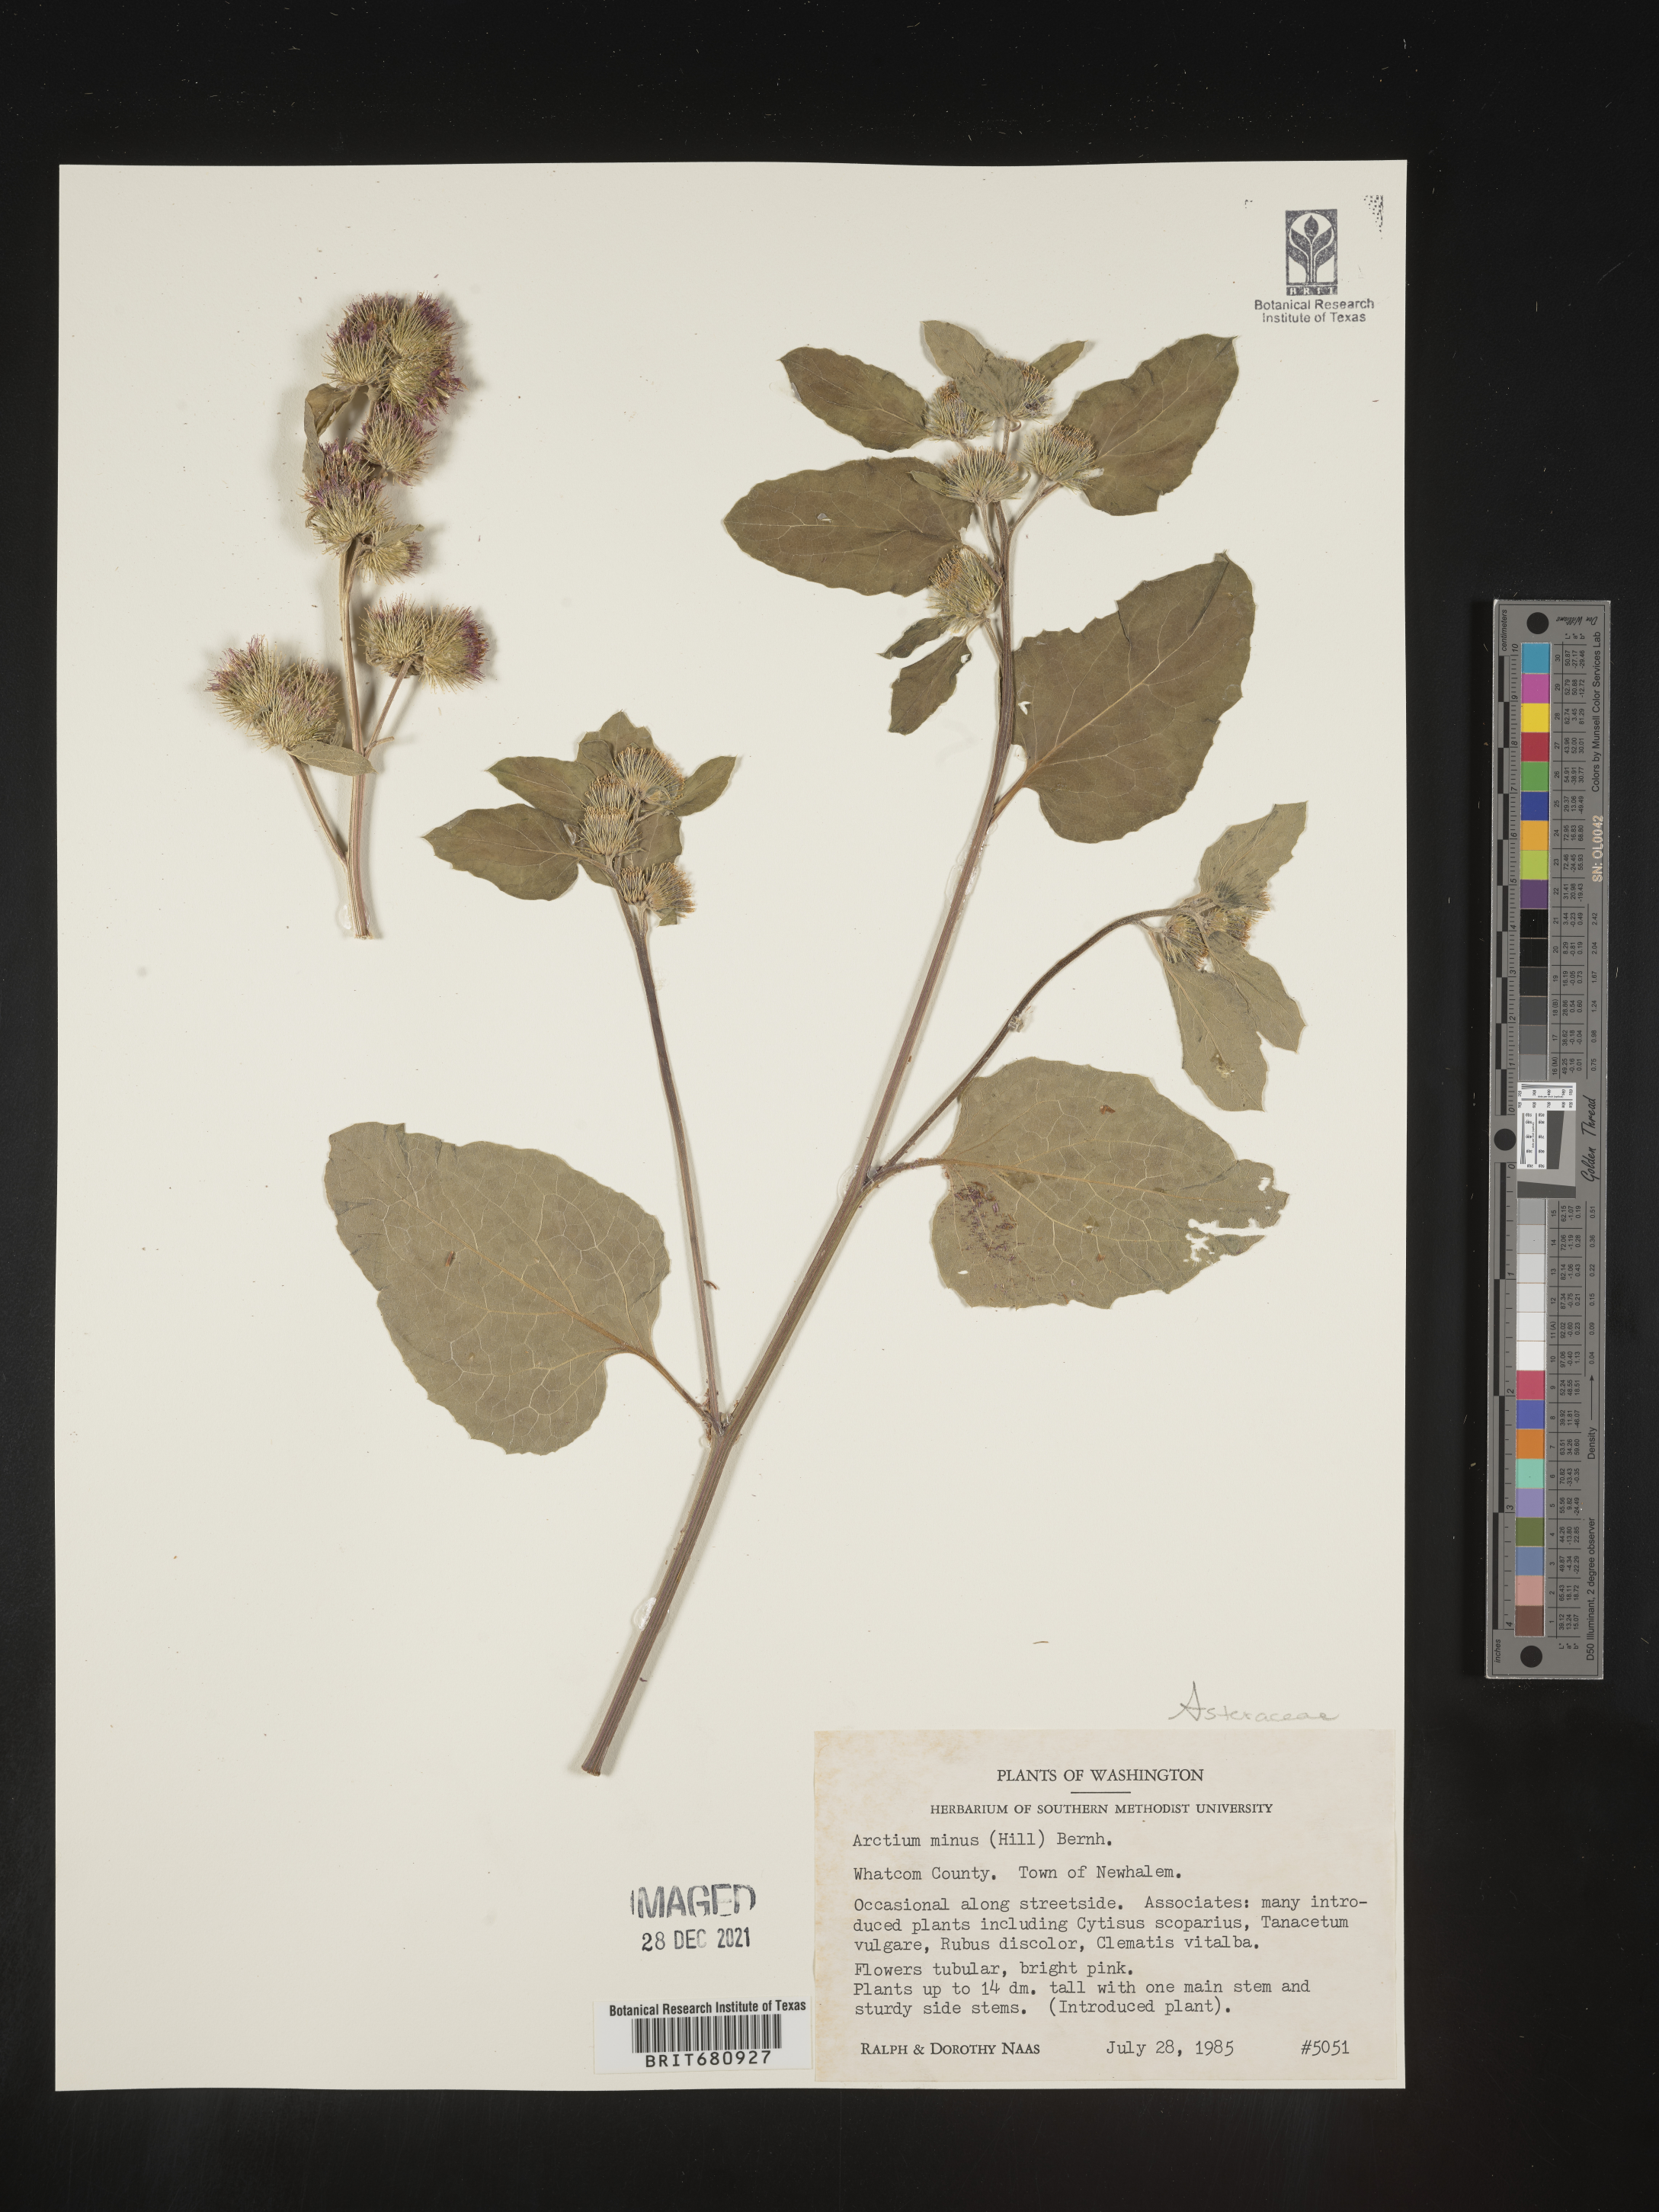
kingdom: Plantae
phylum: Tracheophyta
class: Magnoliopsida
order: Asterales
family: Asteraceae
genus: Arctium
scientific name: Arctium minus
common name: Lesser burdock
